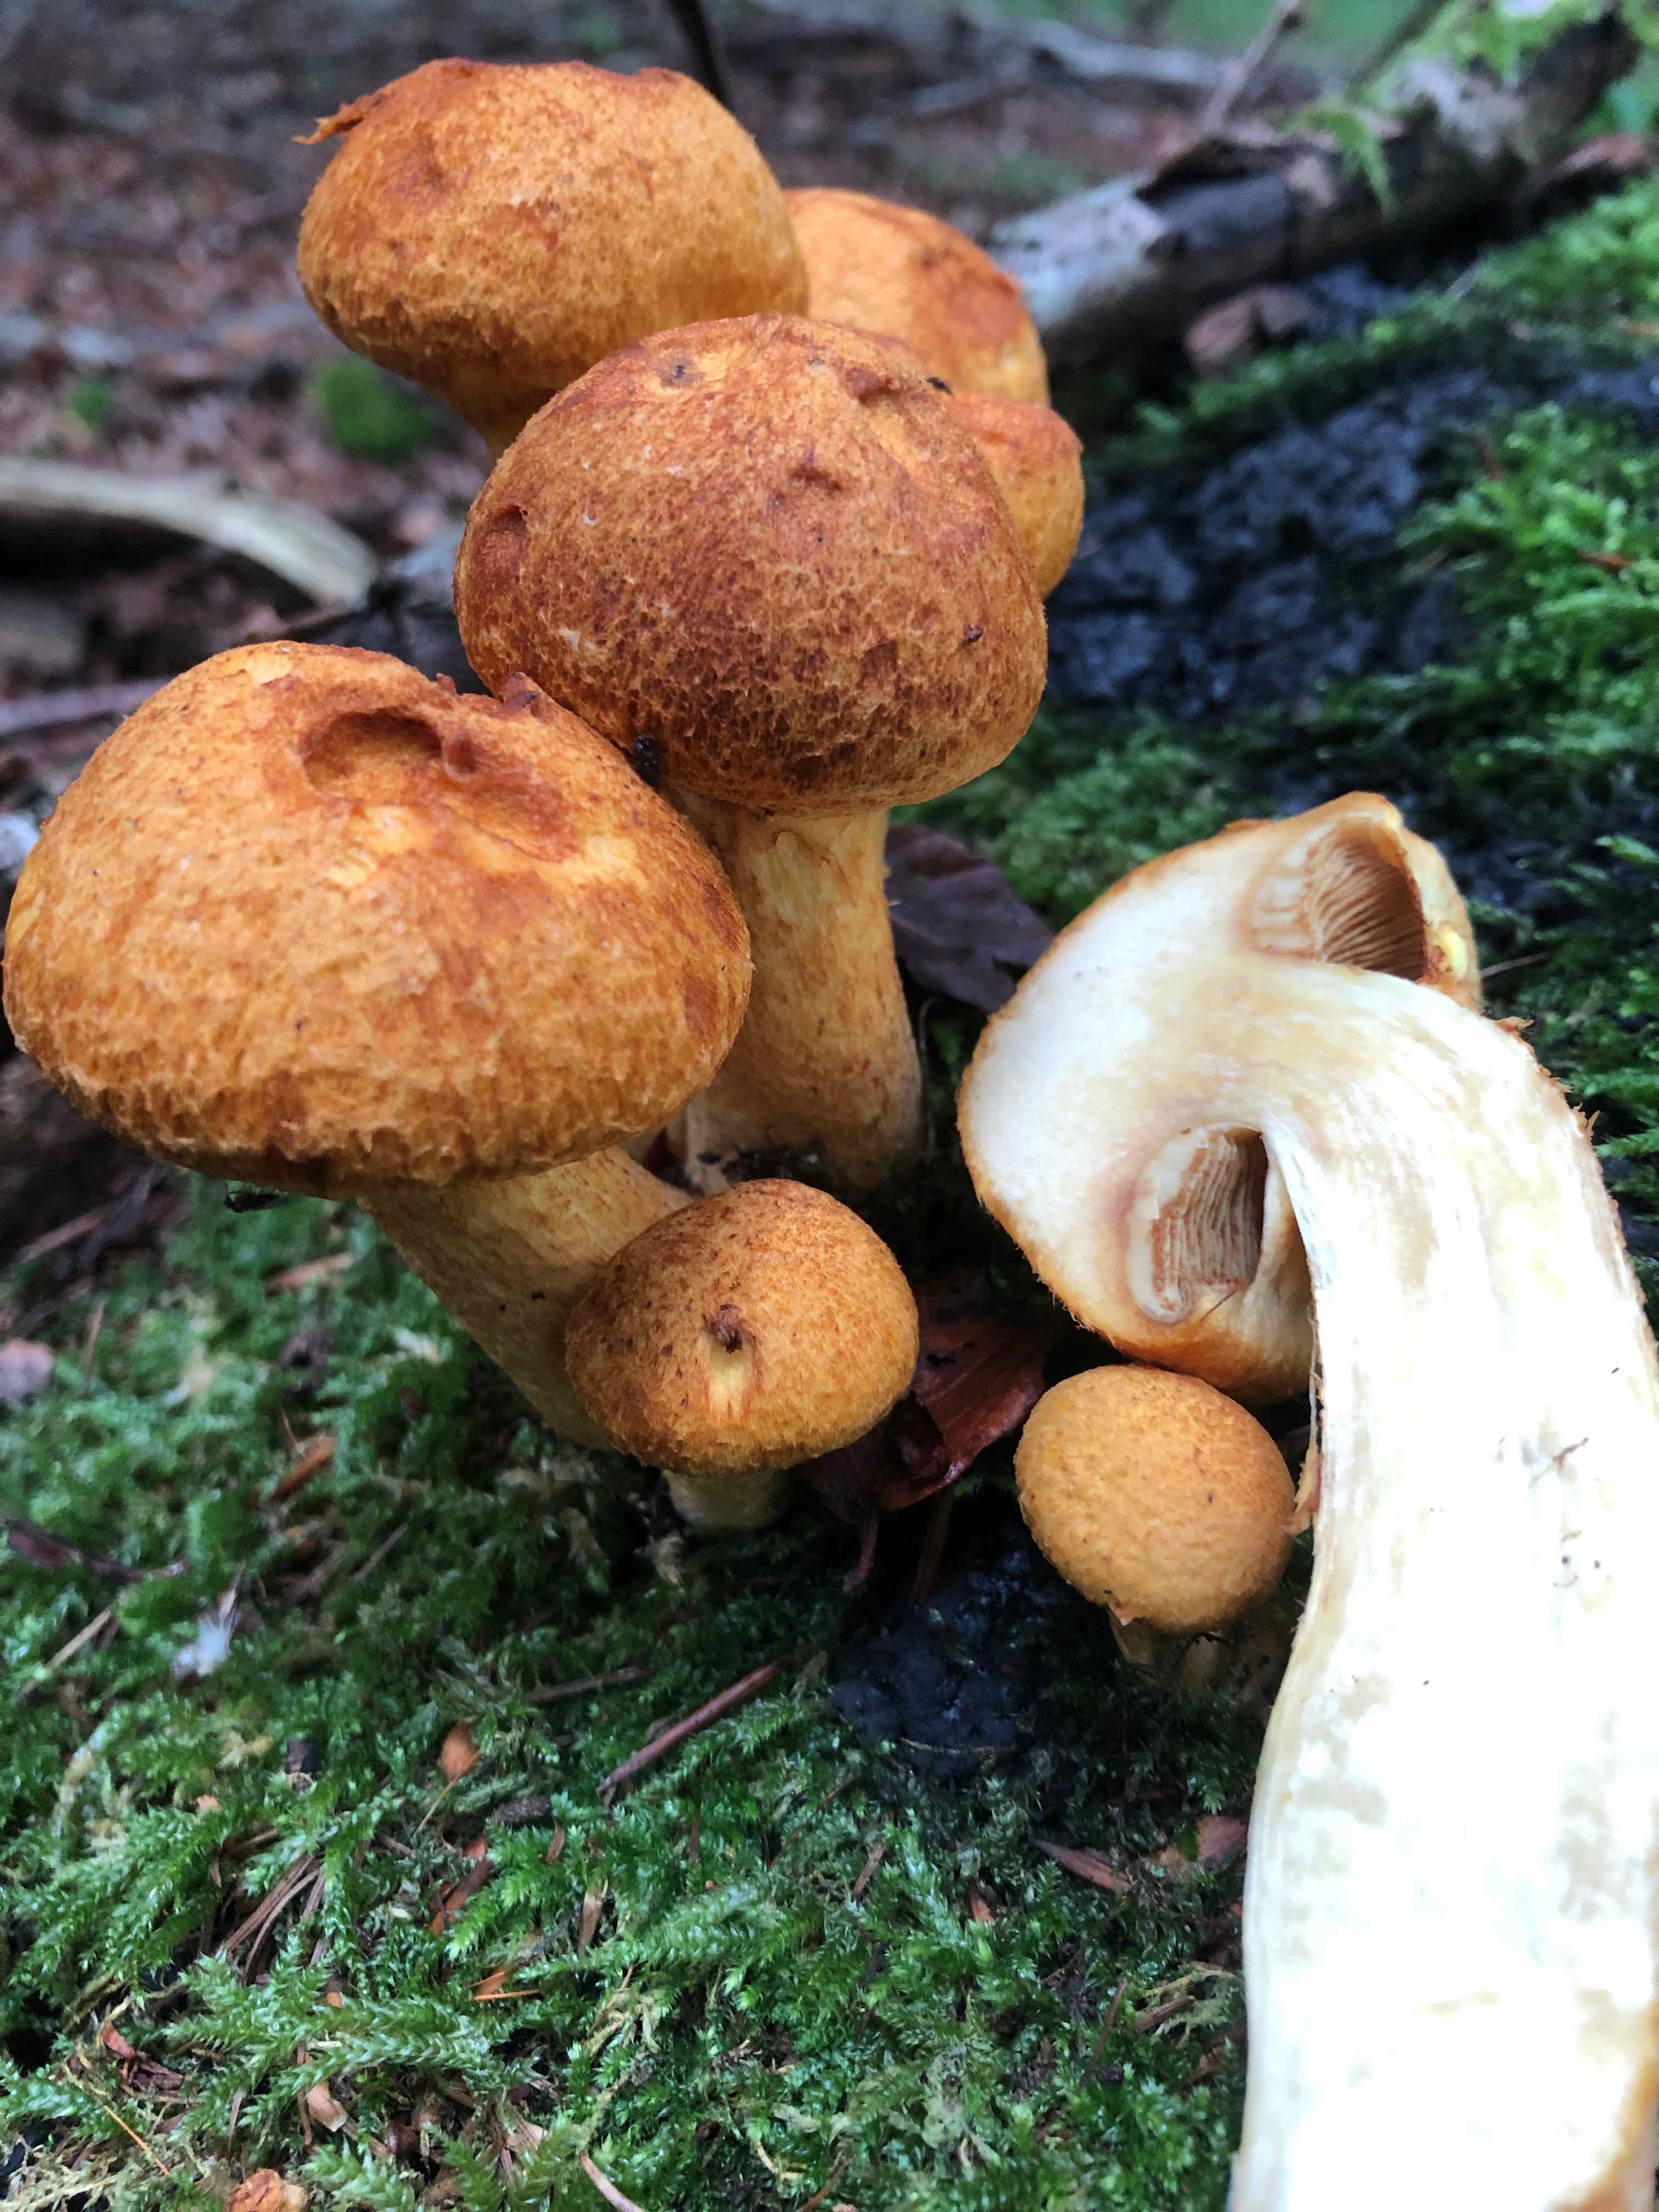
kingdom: Fungi
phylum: Basidiomycota
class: Agaricomycetes
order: Agaricales
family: Hymenogastraceae
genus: Gymnopilus
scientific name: Gymnopilus spectabilis
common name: fibret flammehat
